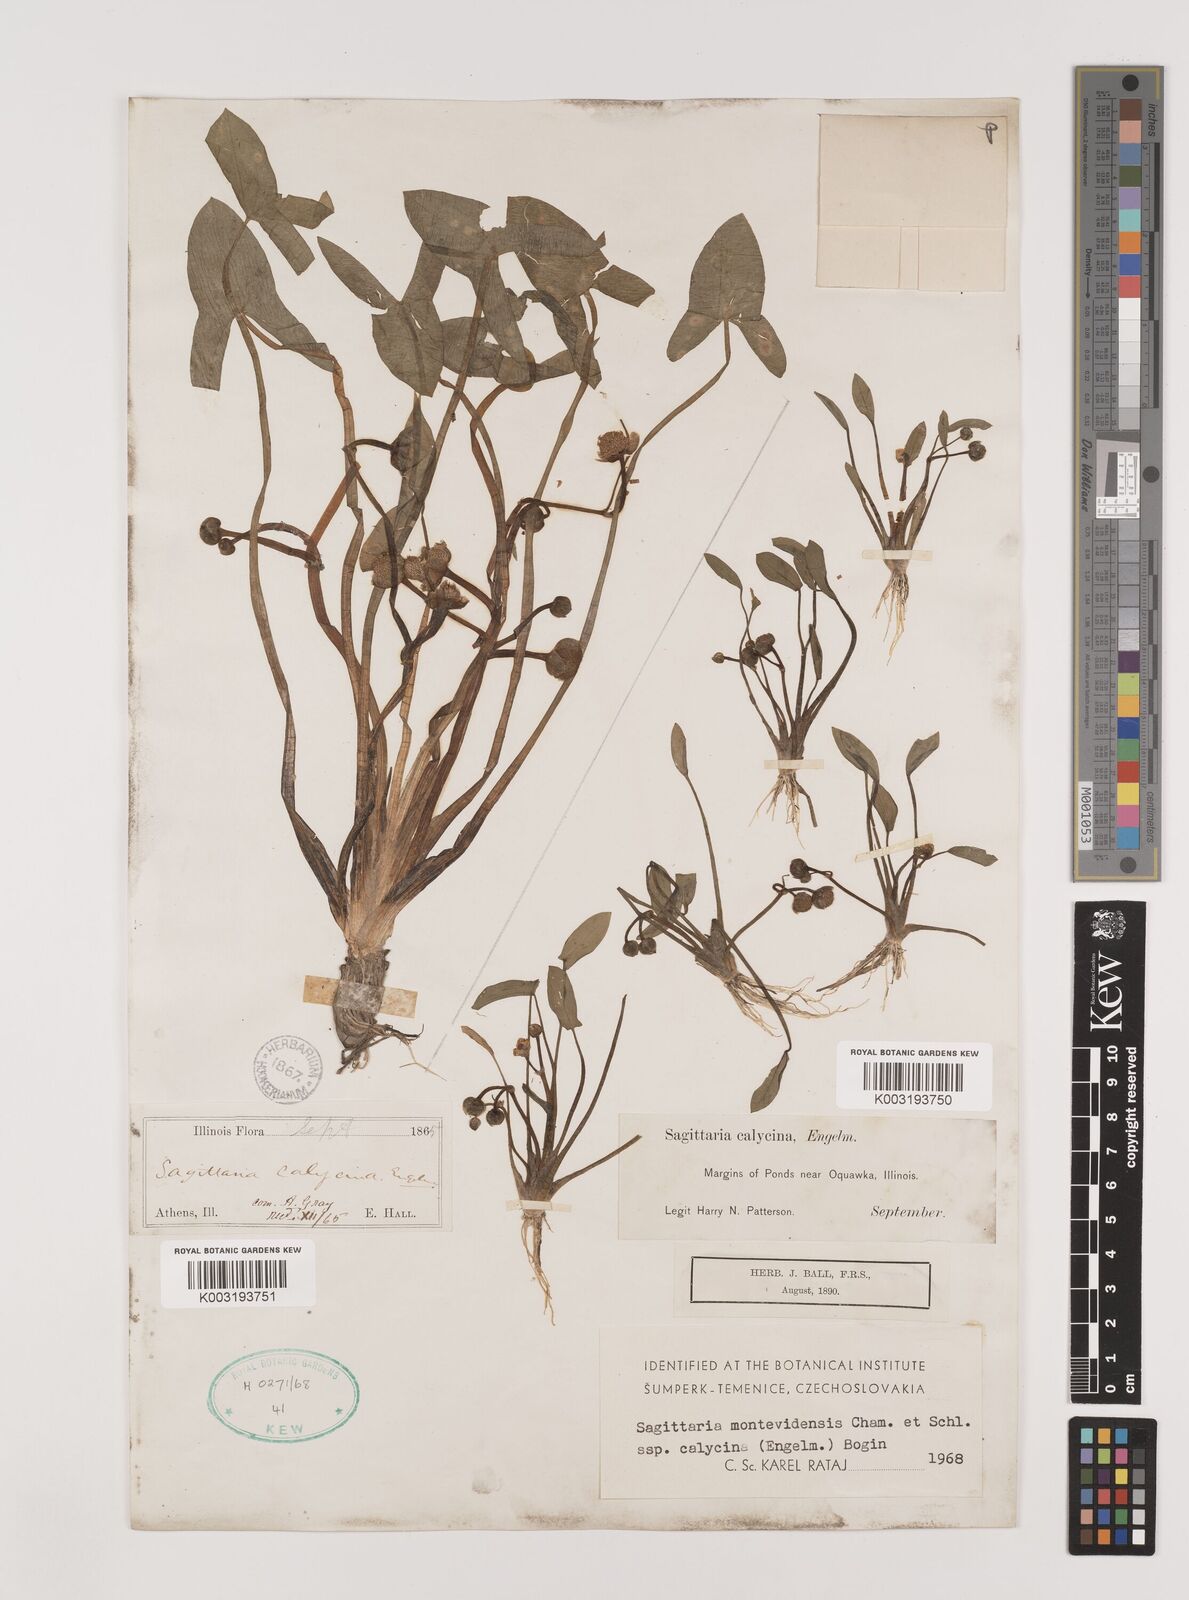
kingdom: Plantae
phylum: Tracheophyta
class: Liliopsida
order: Alismatales
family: Alismataceae
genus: Sagittaria
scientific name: Sagittaria montevidensis
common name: Giant arrowhead
